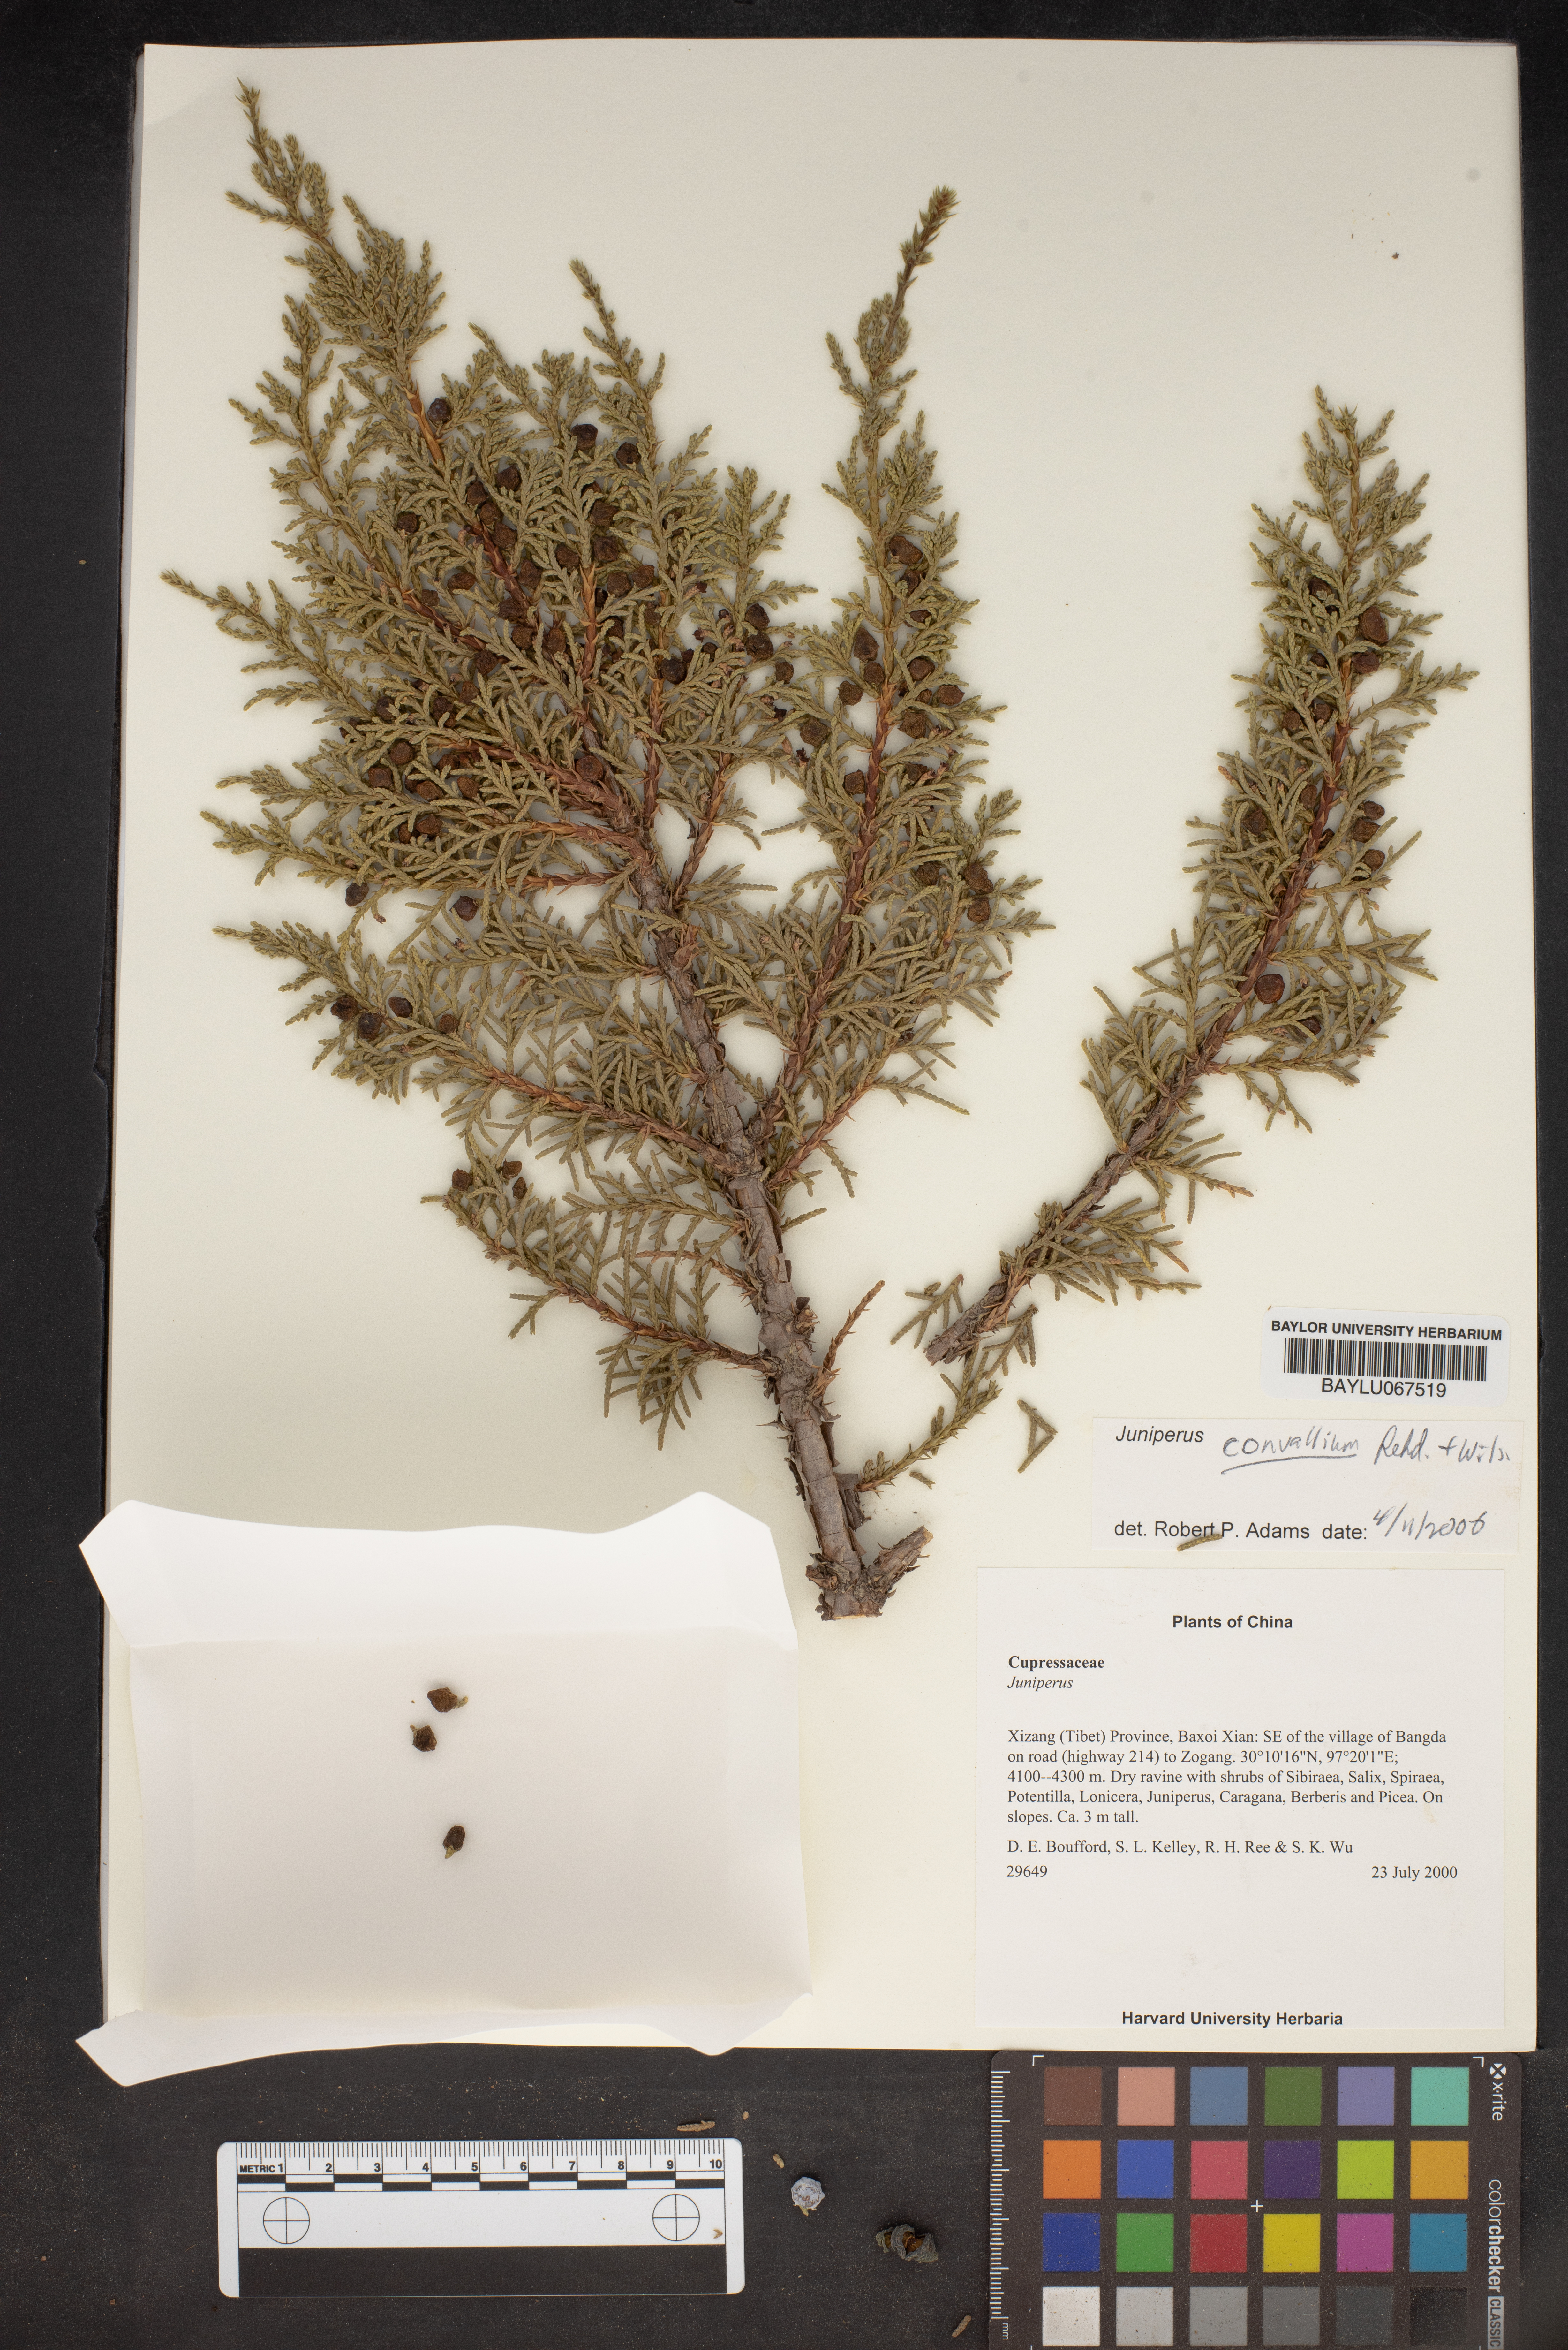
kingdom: Plantae
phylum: Tracheophyta
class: Pinopsida
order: Pinales
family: Cupressaceae
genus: Juniperus
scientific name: Juniperus convallium
